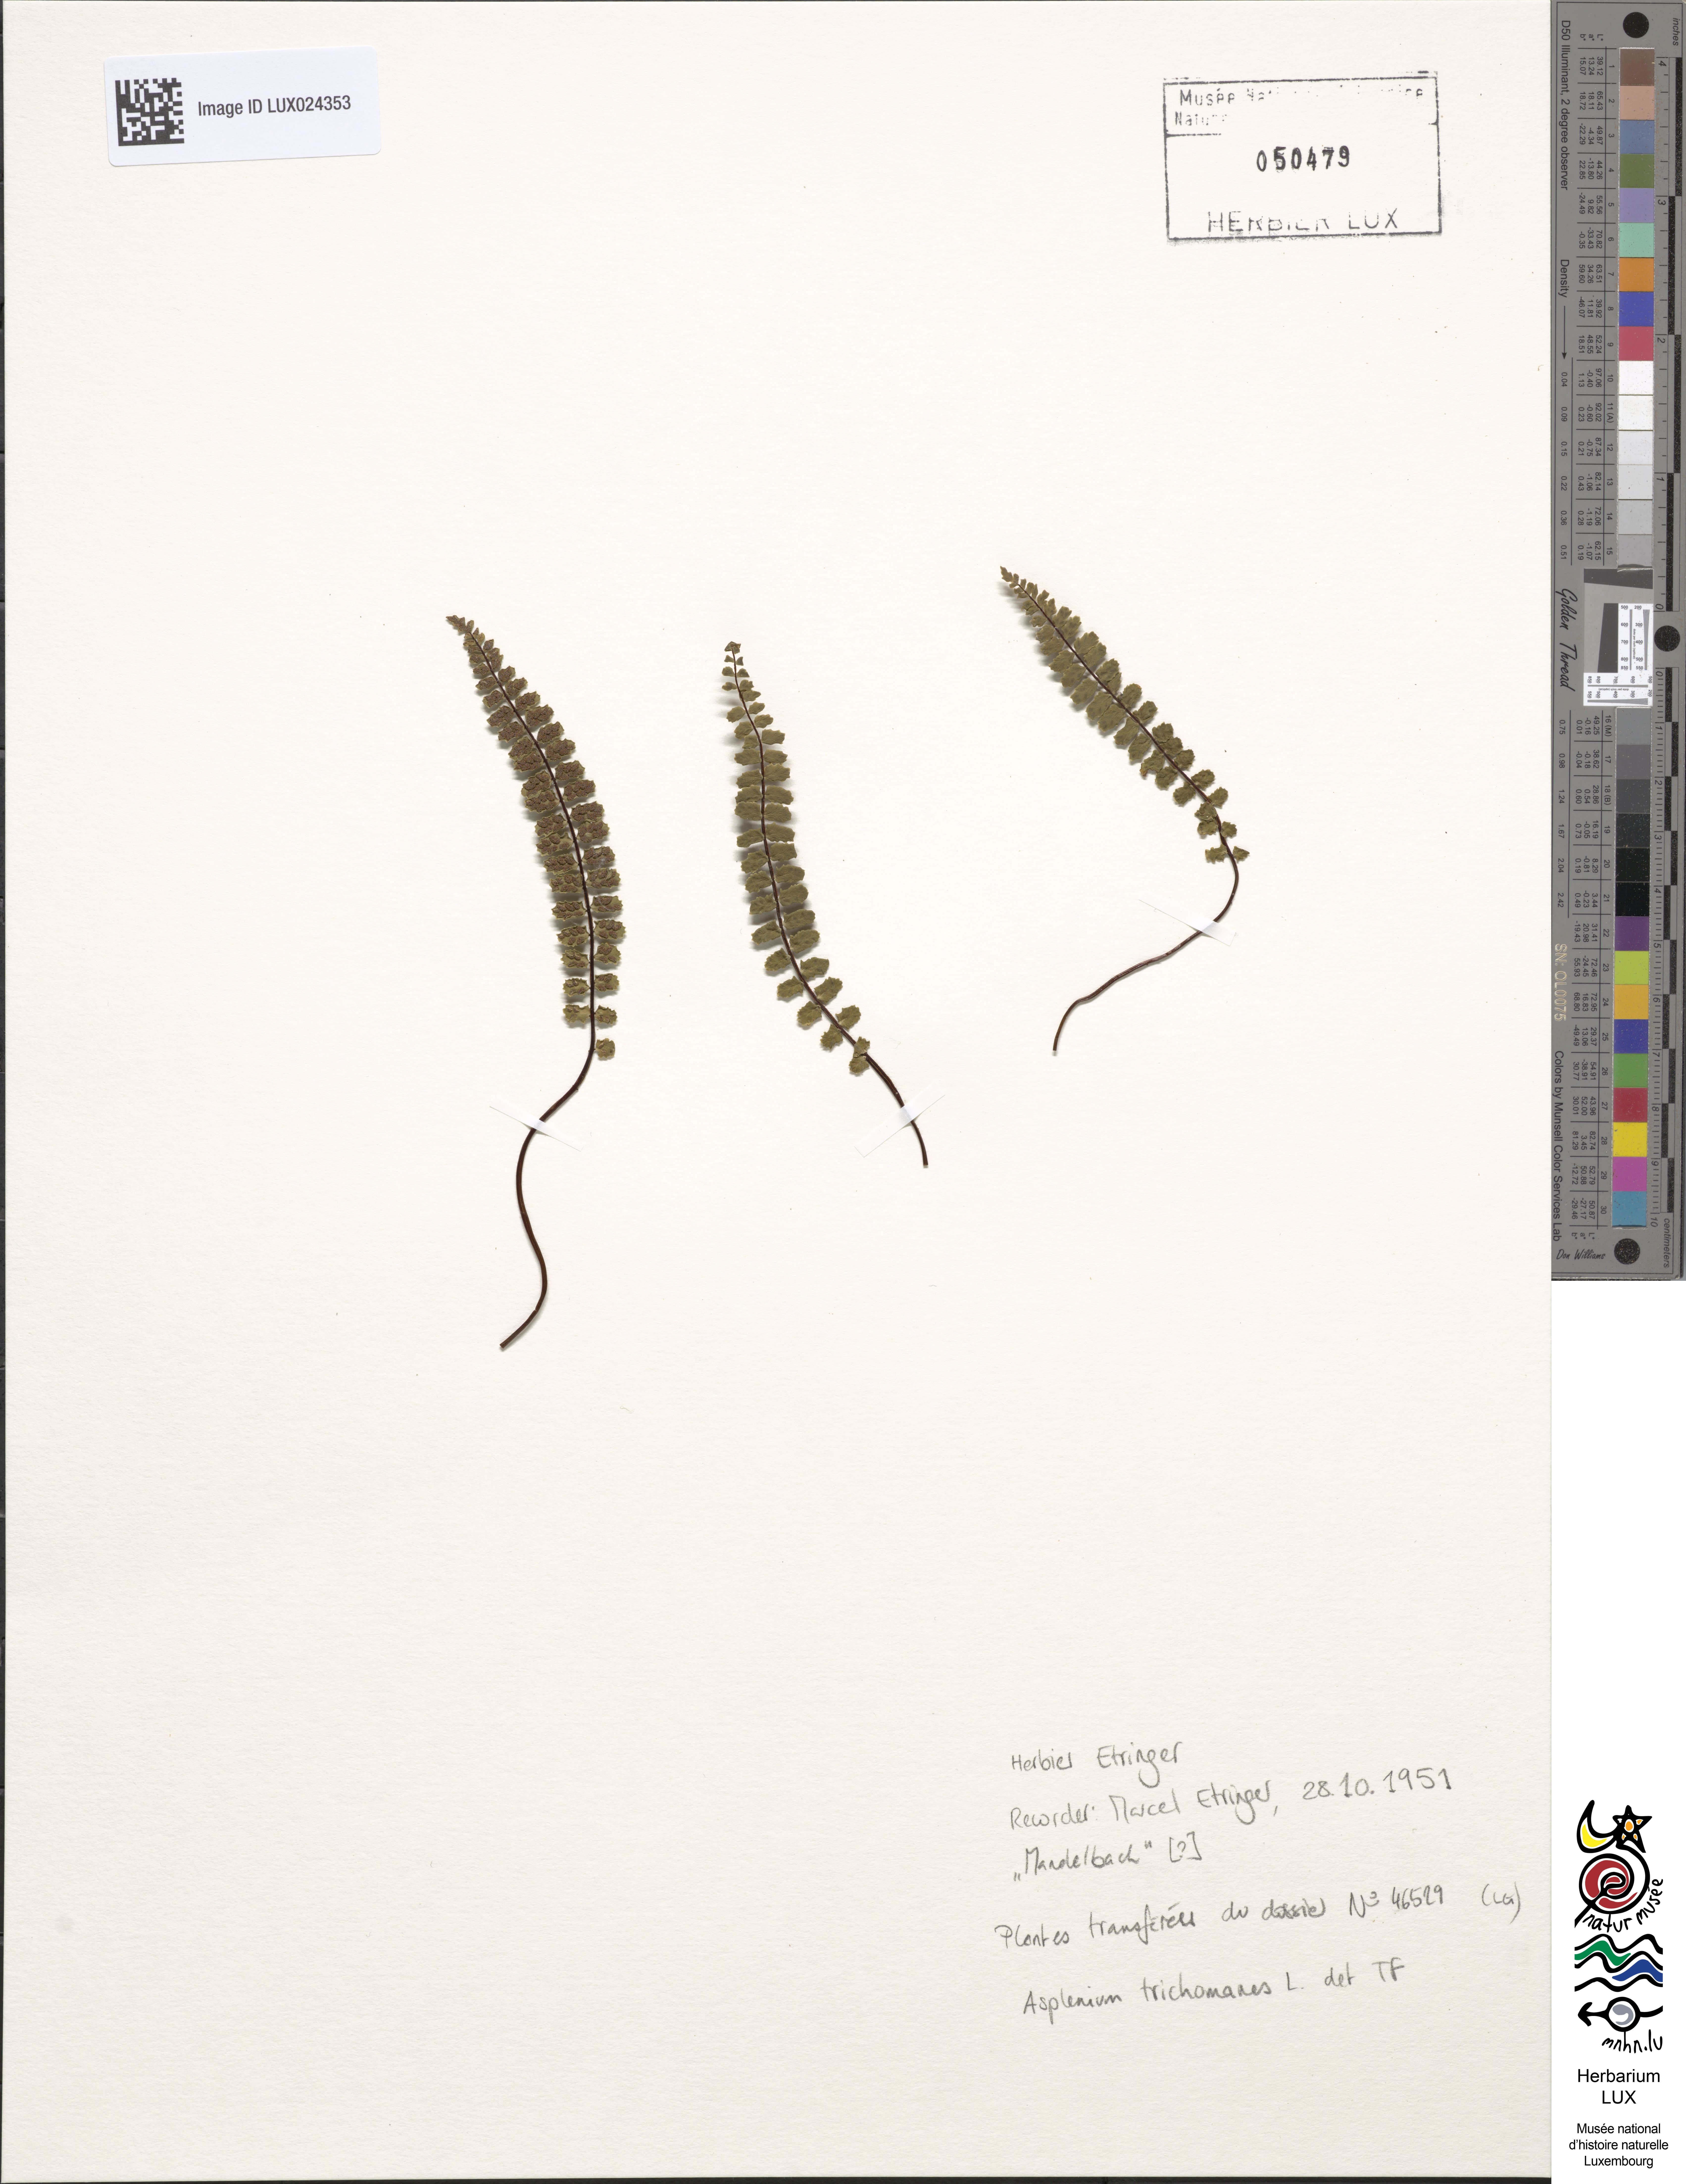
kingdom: Plantae
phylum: Tracheophyta
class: Polypodiopsida
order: Polypodiales
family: Aspleniaceae
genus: Asplenium
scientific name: Asplenium trichomanes
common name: Maidenhair spleenwort
